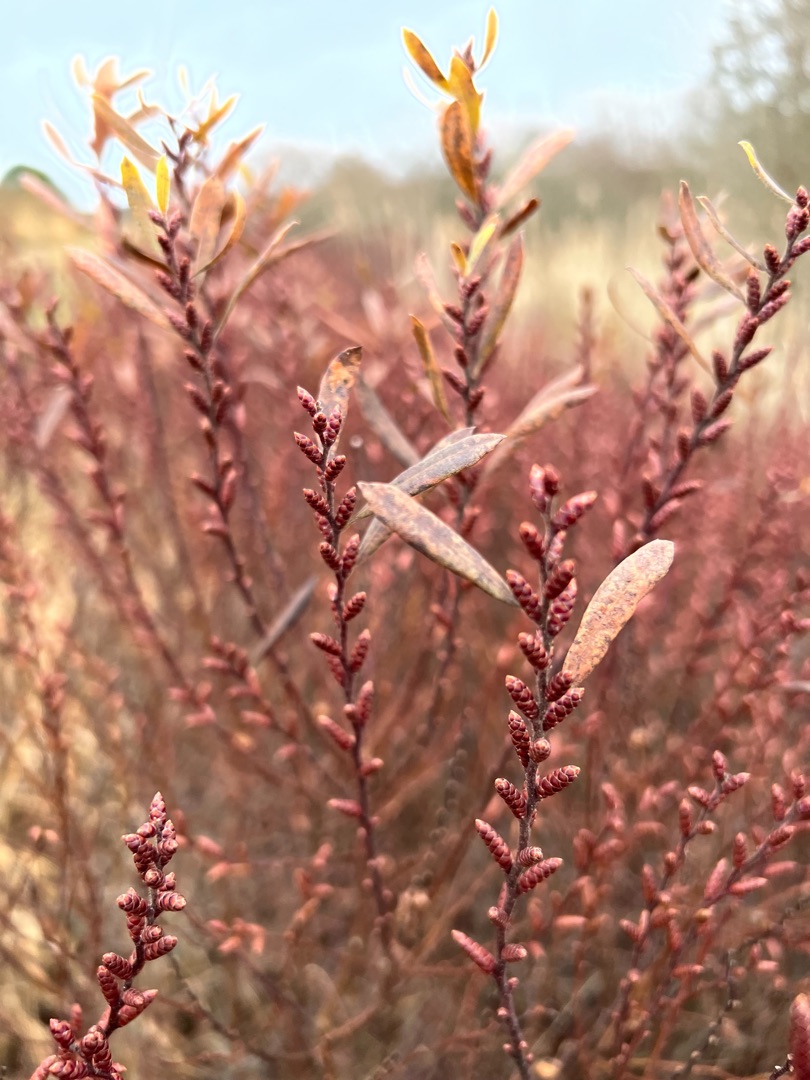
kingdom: Plantae
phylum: Tracheophyta
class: Magnoliopsida
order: Fagales
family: Myricaceae
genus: Myrica
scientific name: Myrica gale
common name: Pors
